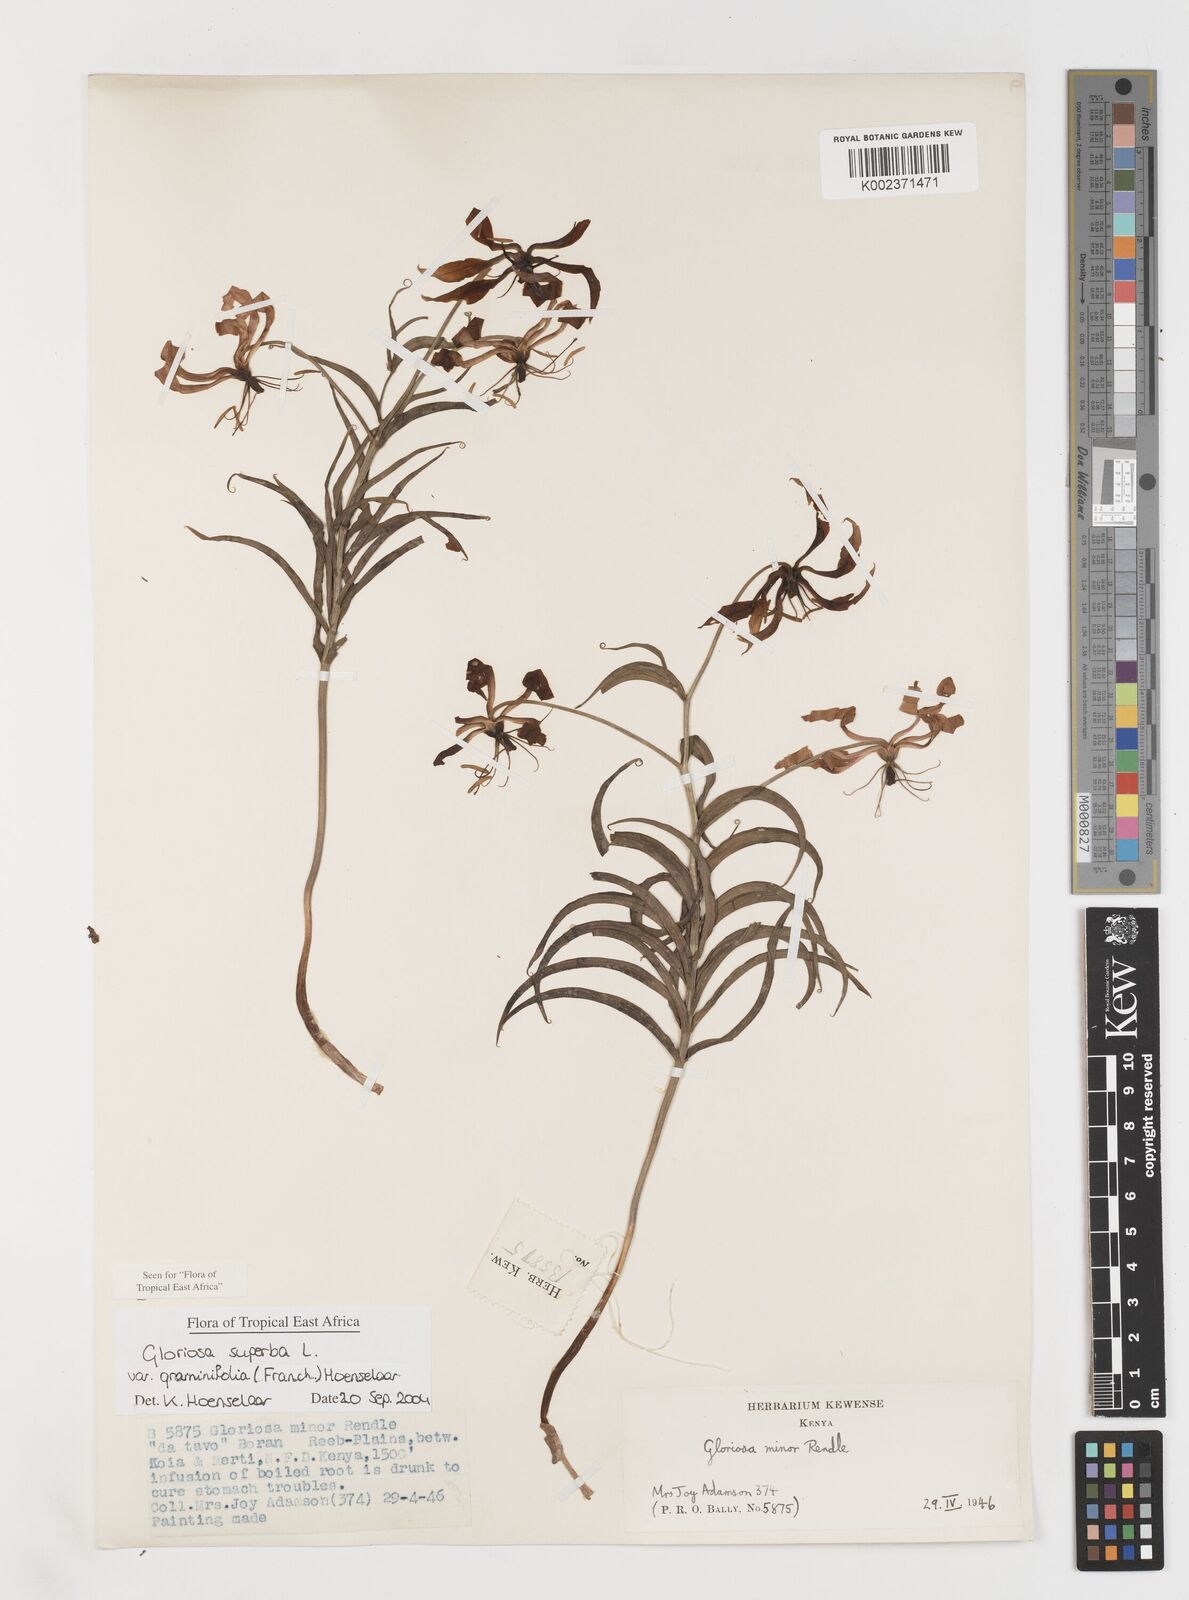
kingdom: Plantae
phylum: Tracheophyta
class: Liliopsida
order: Liliales
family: Colchicaceae
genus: Gloriosa
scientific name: Gloriosa baudii
